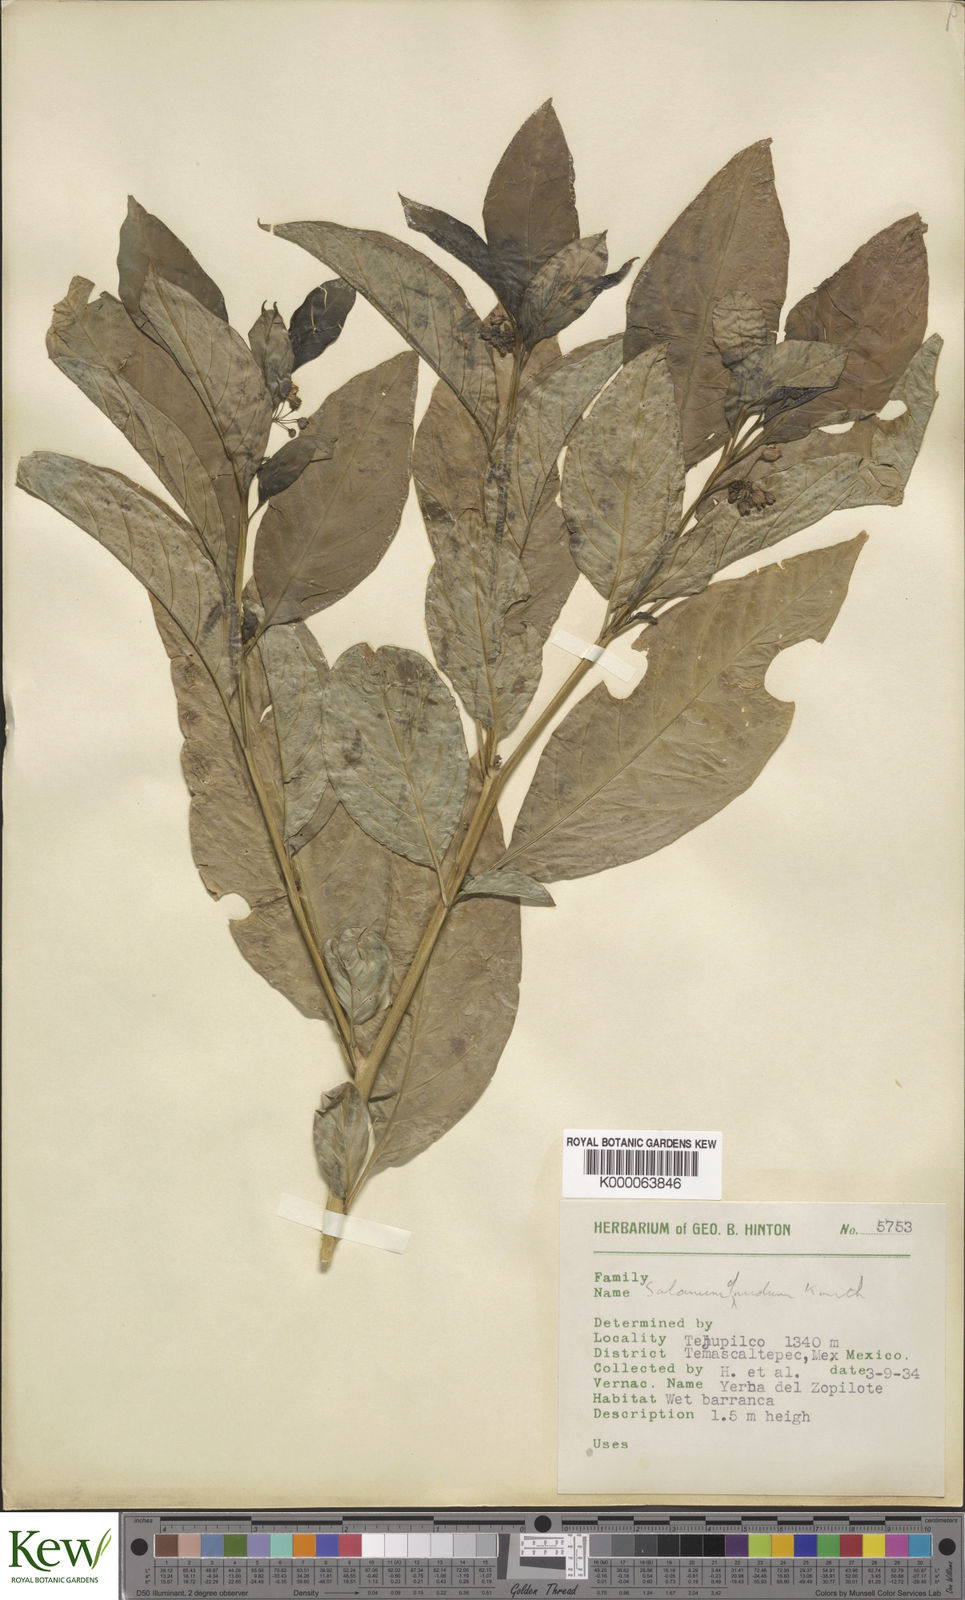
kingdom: Plantae
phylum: Tracheophyta
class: Magnoliopsida
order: Solanales
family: Solanaceae
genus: Solanum
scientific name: Solanum nudum
